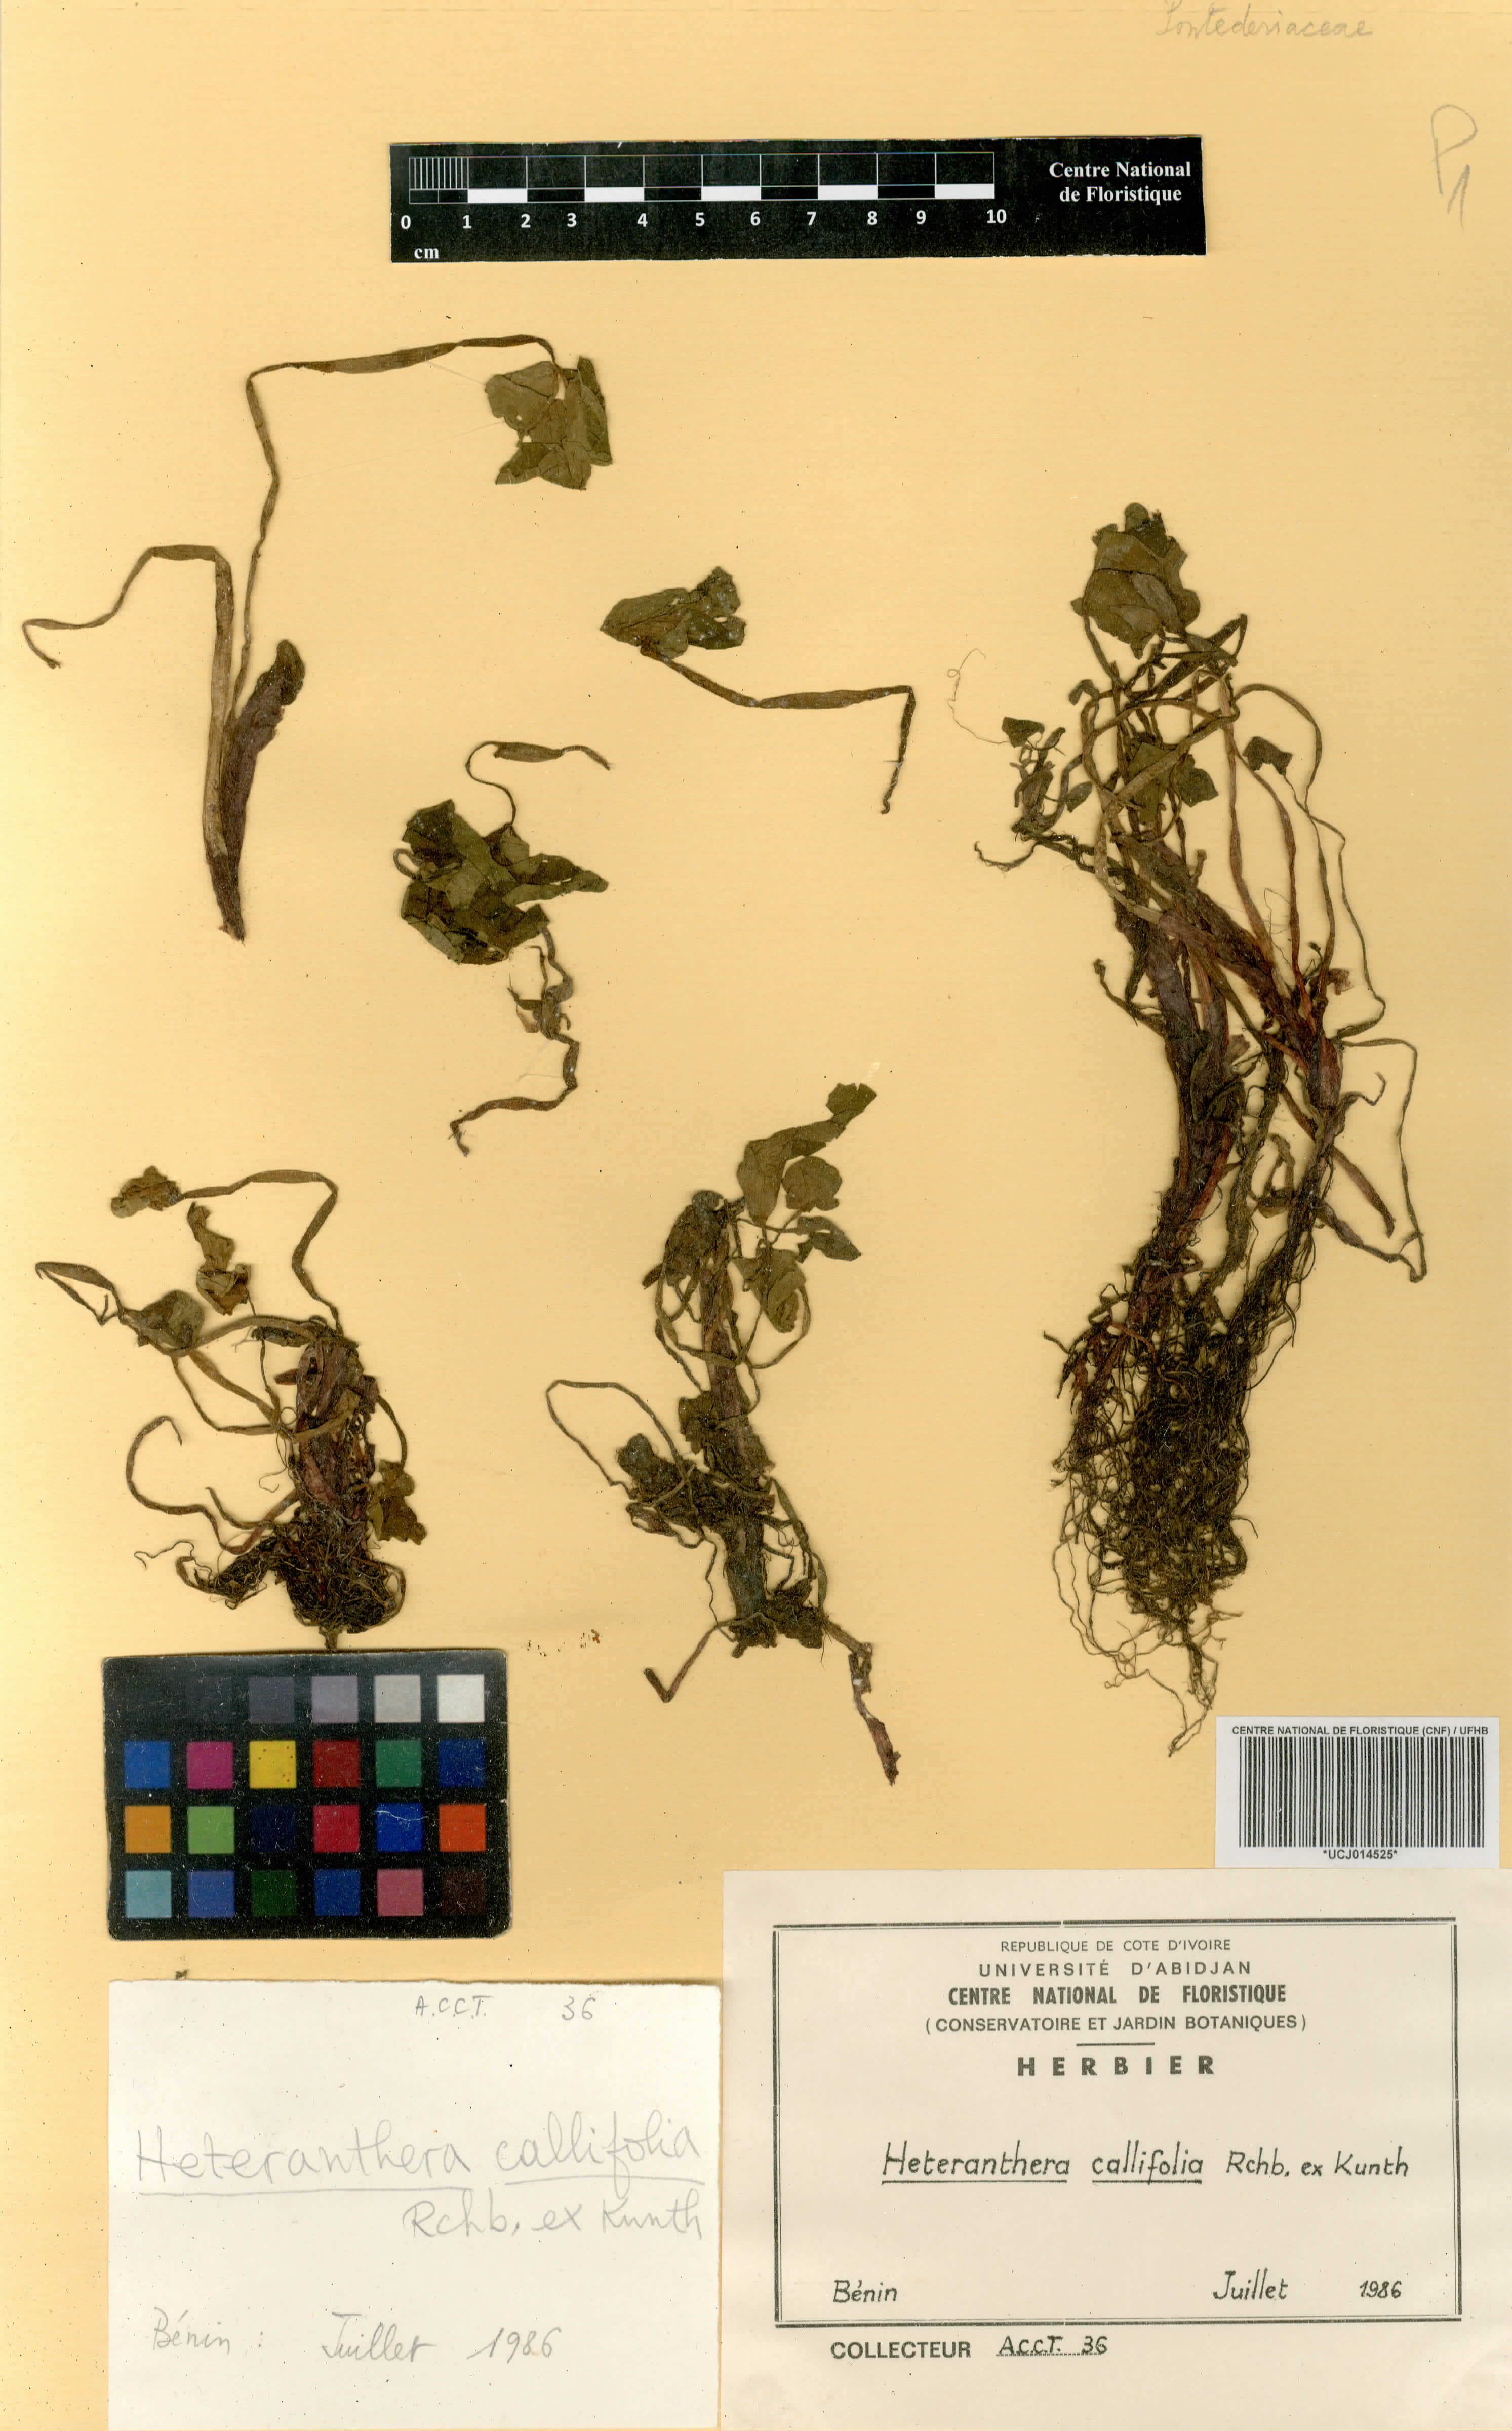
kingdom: Plantae
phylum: Tracheophyta
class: Liliopsida
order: Commelinales
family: Pontederiaceae
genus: Heteranthera
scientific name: Heteranthera callifolia
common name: Mud plantain
